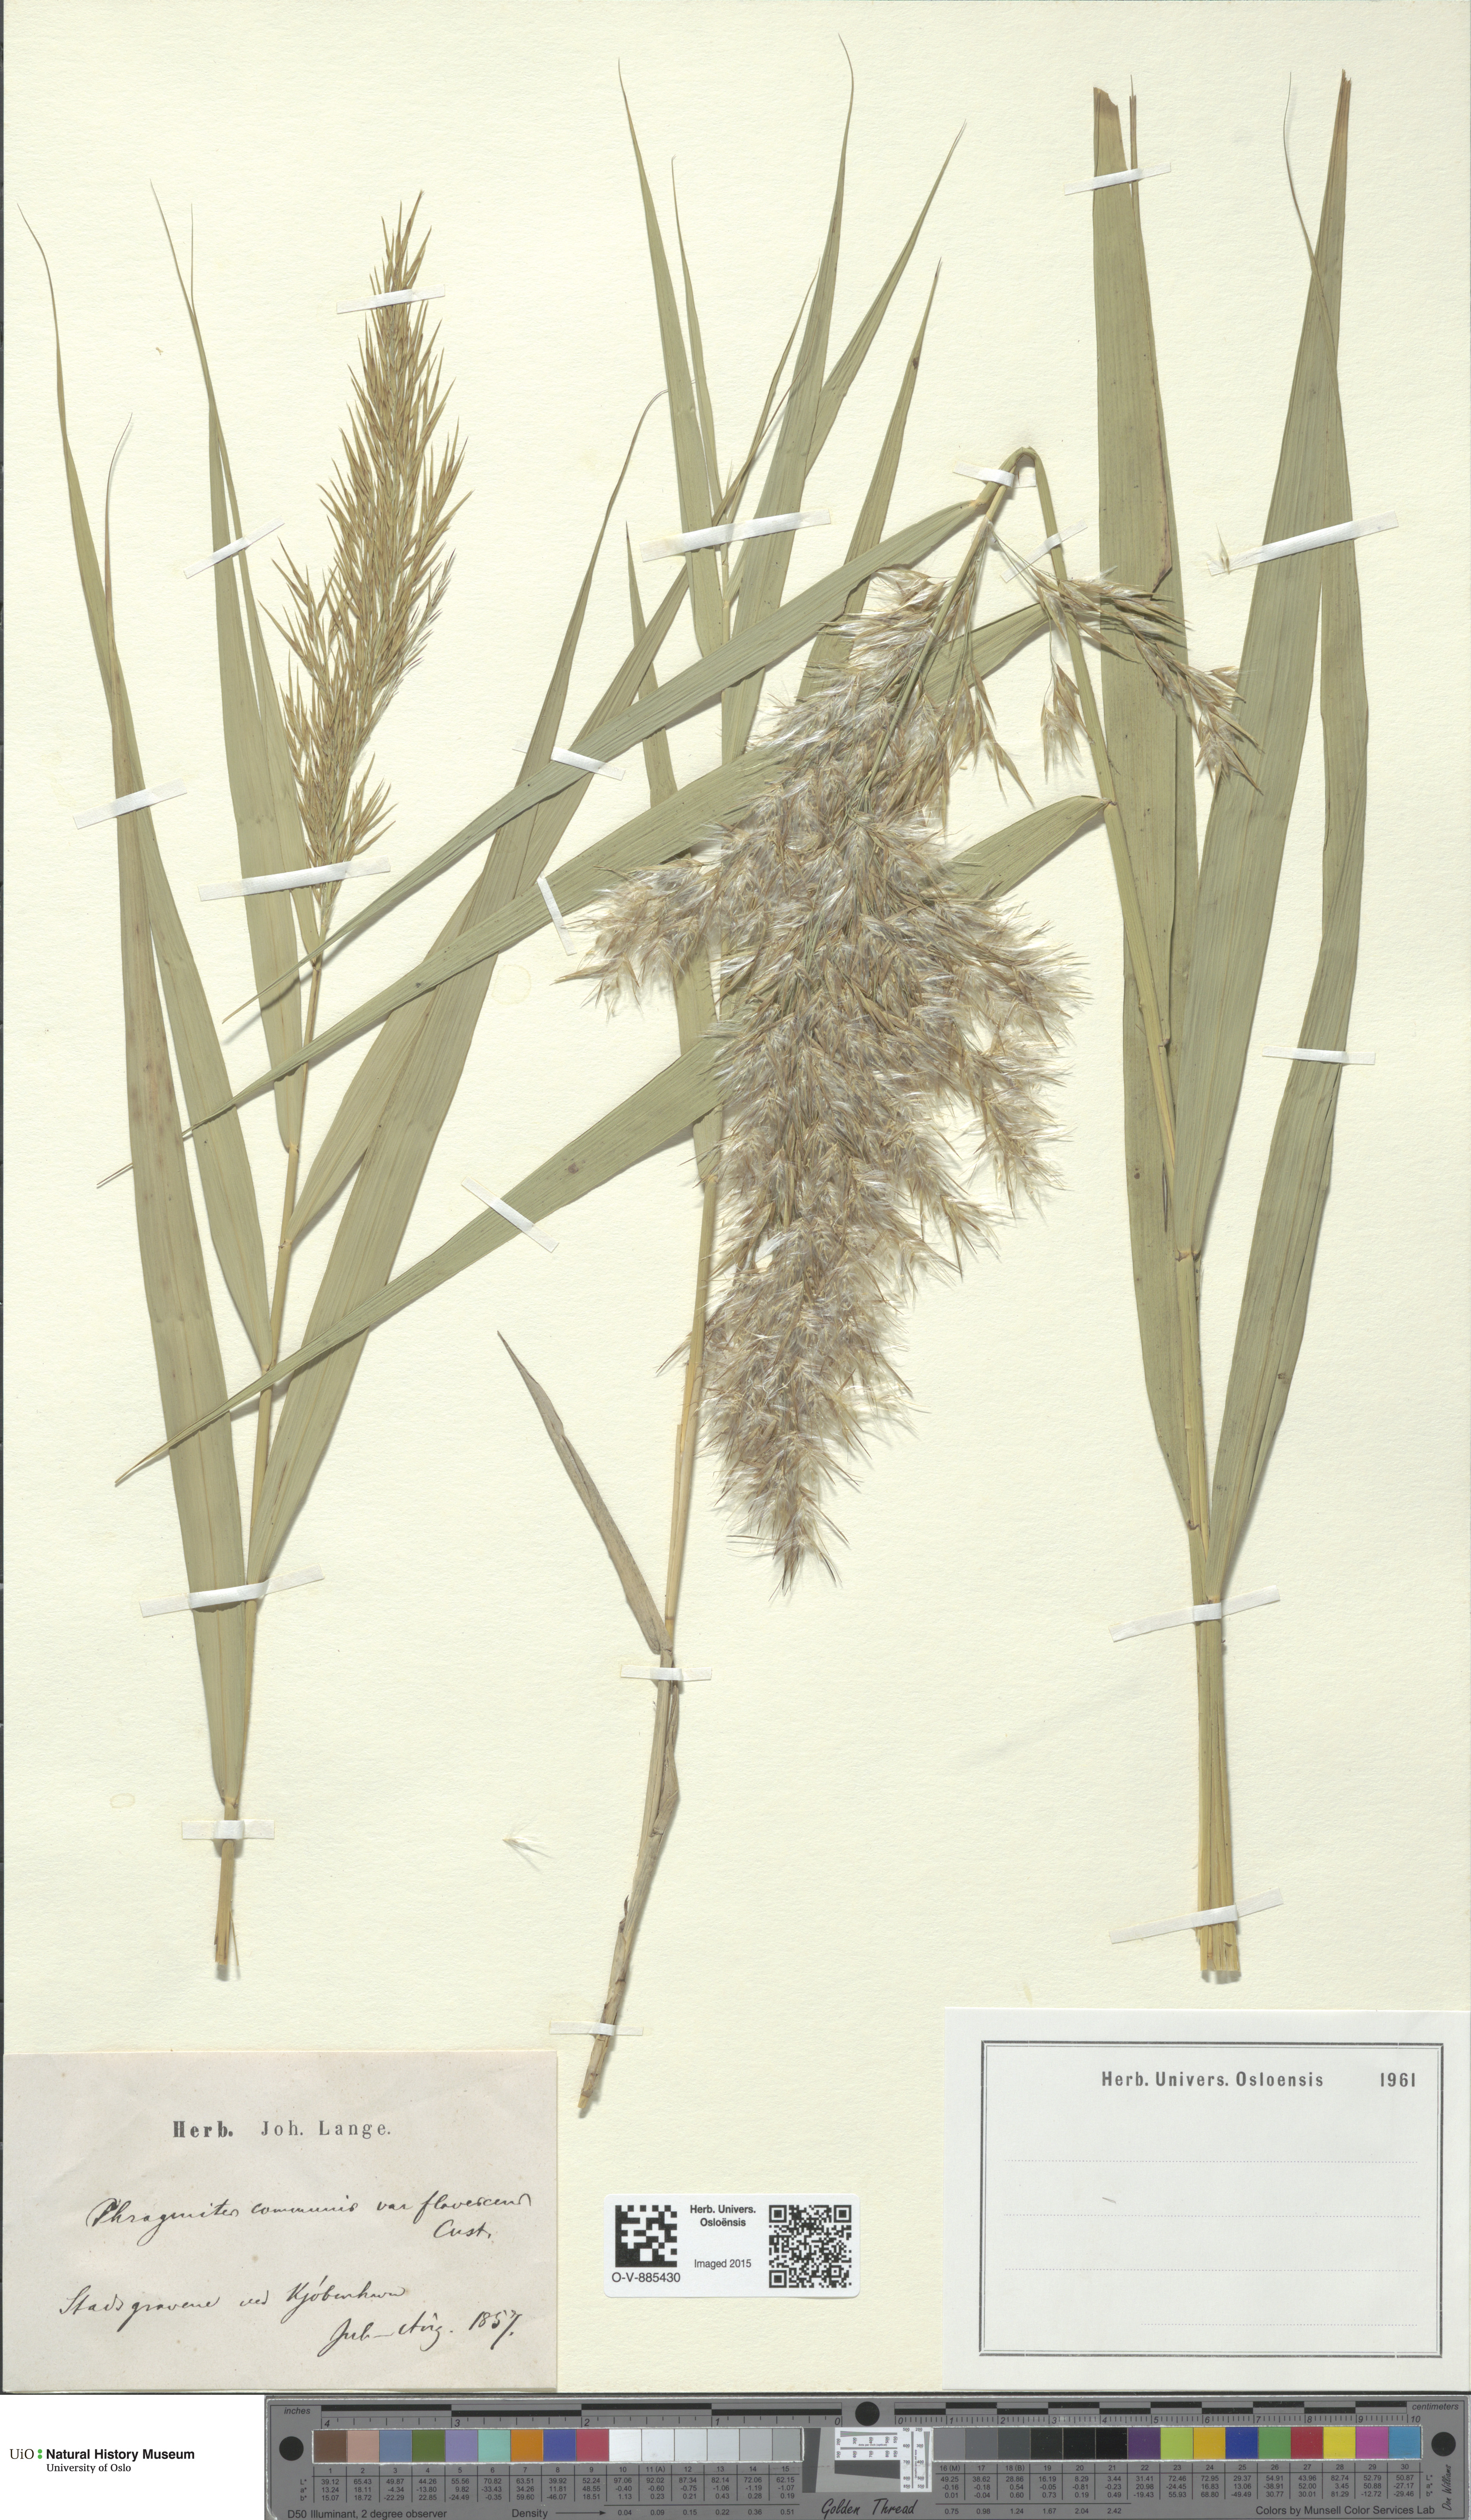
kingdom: Plantae
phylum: Tracheophyta
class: Liliopsida
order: Poales
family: Poaceae
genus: Phragmites
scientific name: Phragmites australis
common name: Common reed
